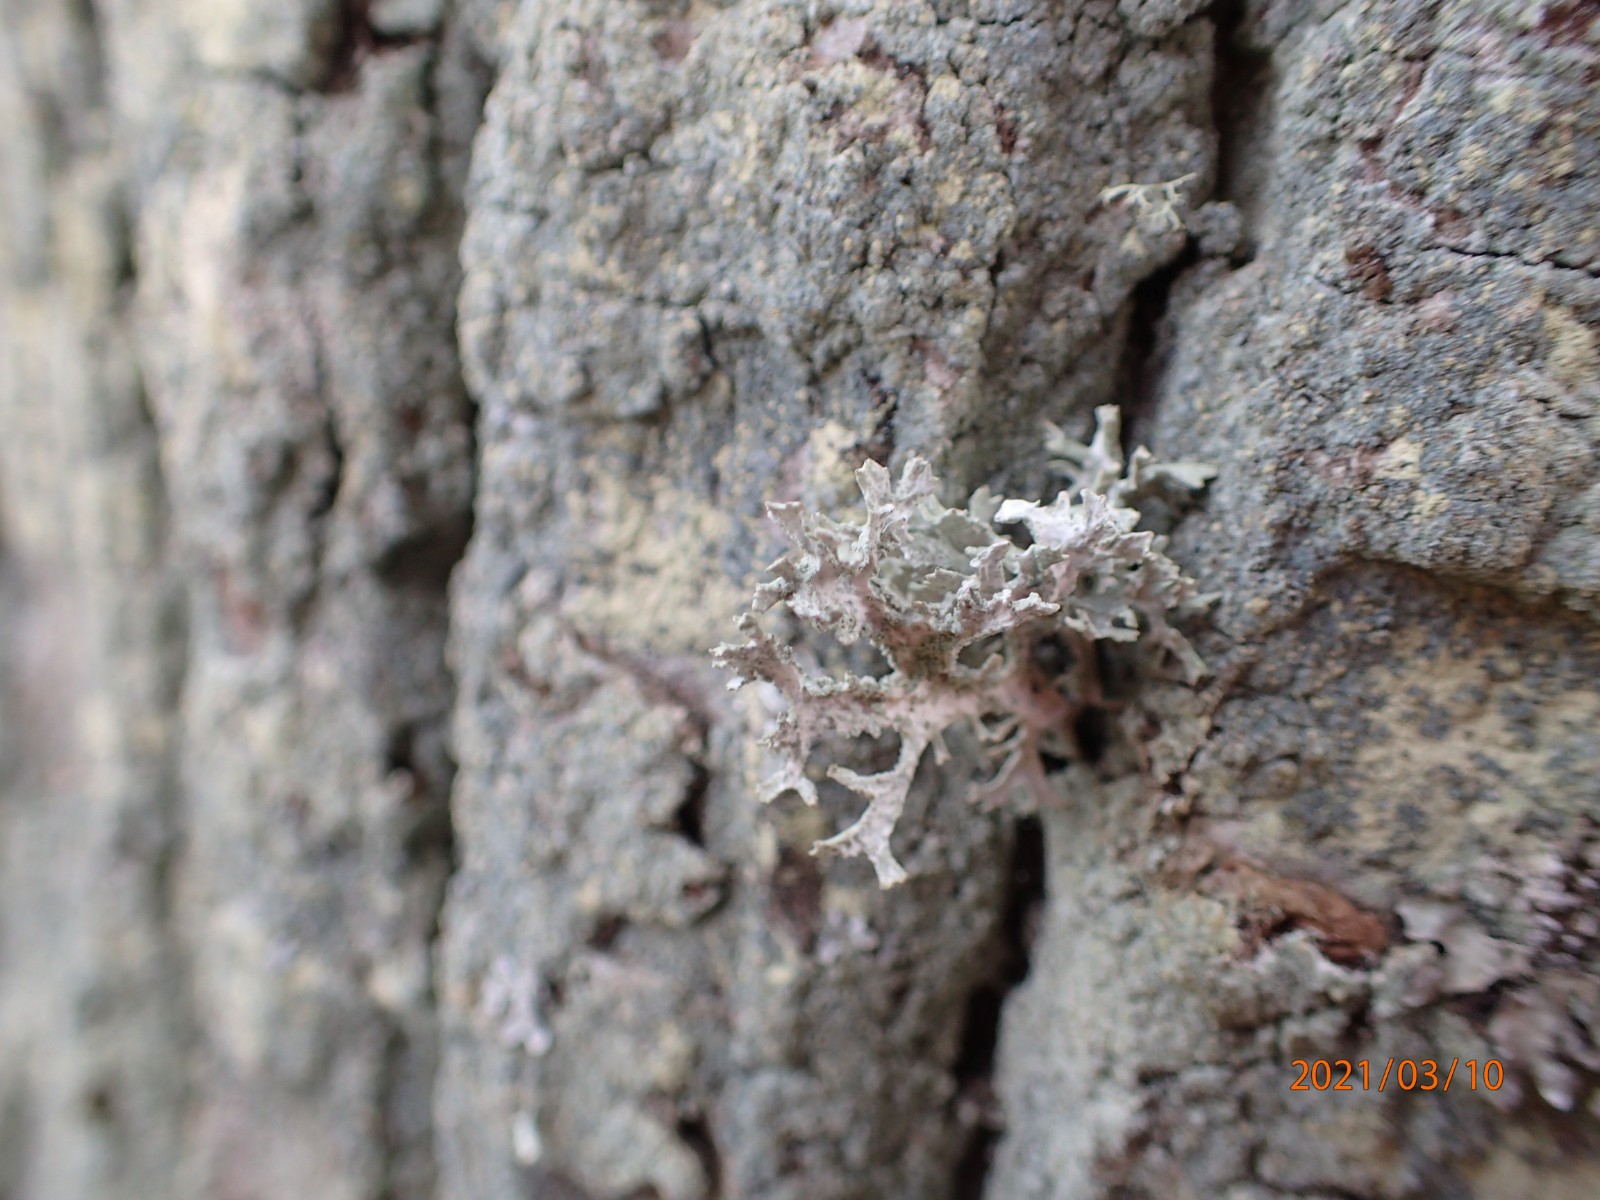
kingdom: Fungi
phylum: Ascomycota
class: Lecanoromycetes
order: Lecanorales
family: Parmeliaceae
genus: Evernia
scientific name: Evernia prunastri
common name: almindelig slåenlav
